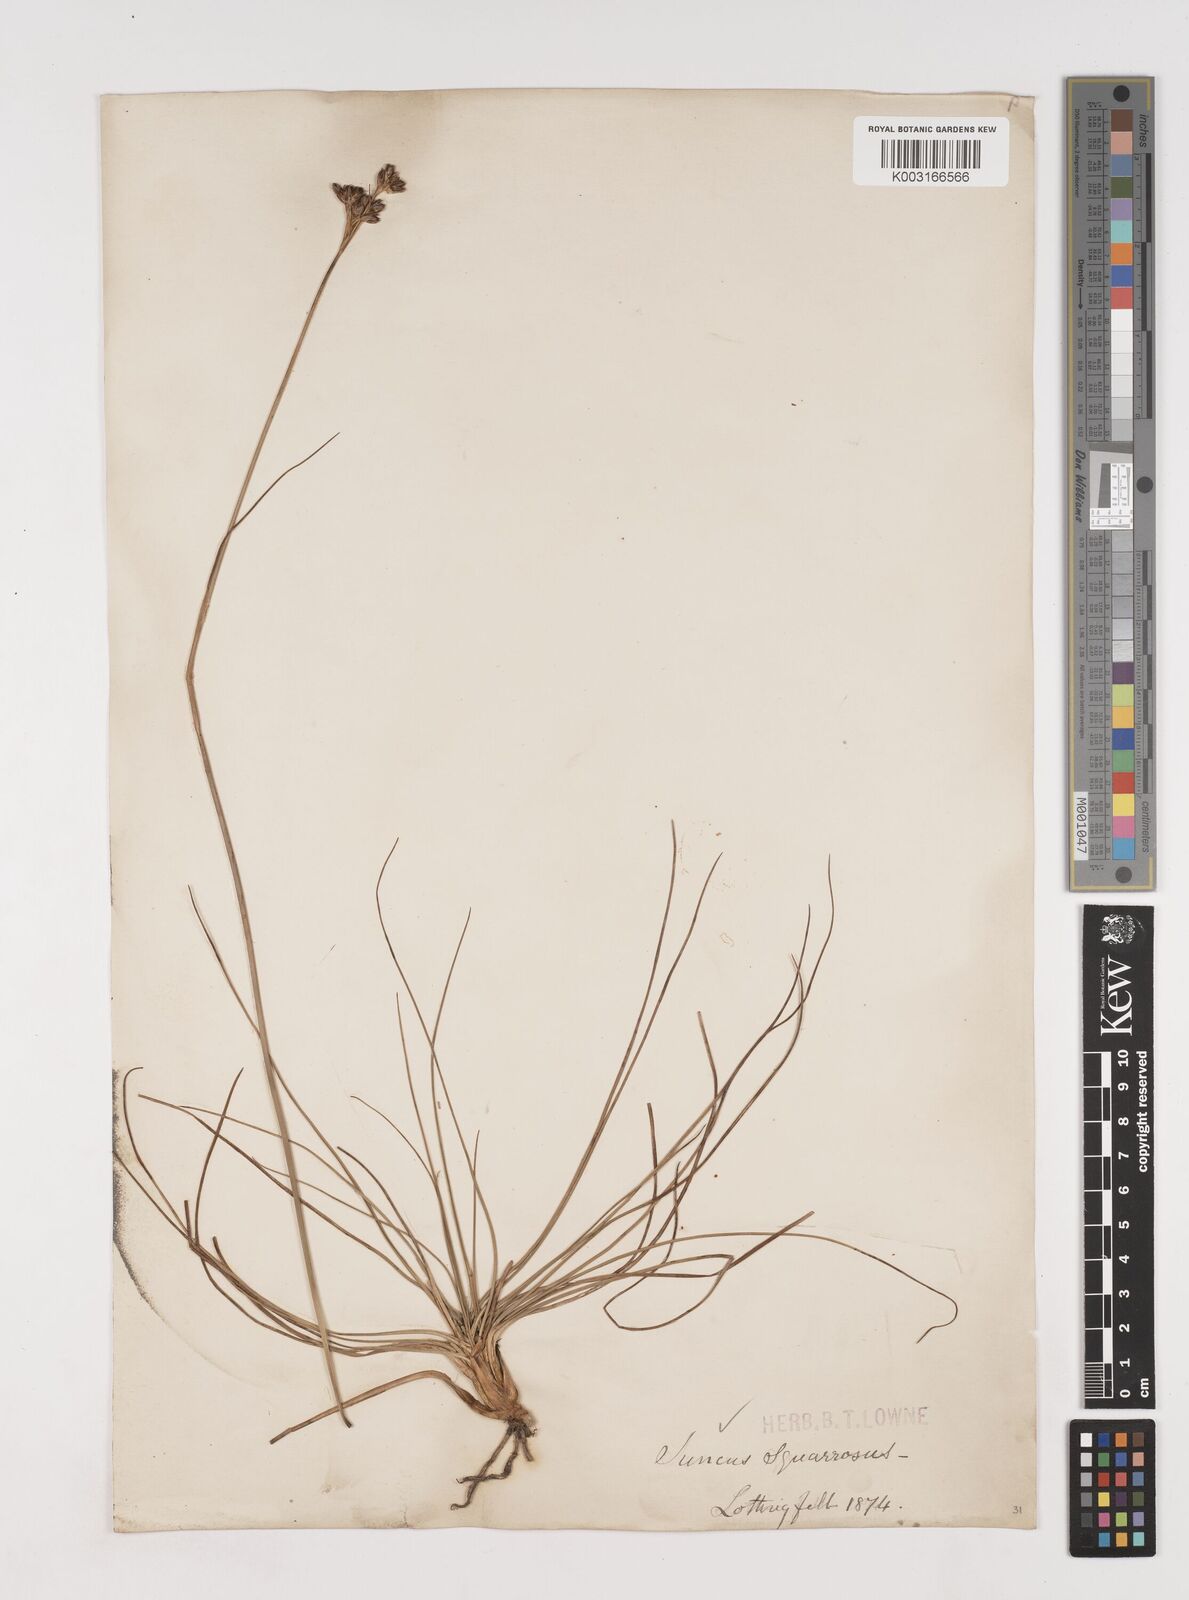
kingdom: Plantae
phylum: Tracheophyta
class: Liliopsida
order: Poales
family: Juncaceae
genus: Juncus
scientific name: Juncus squarrosus
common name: Heath rush
